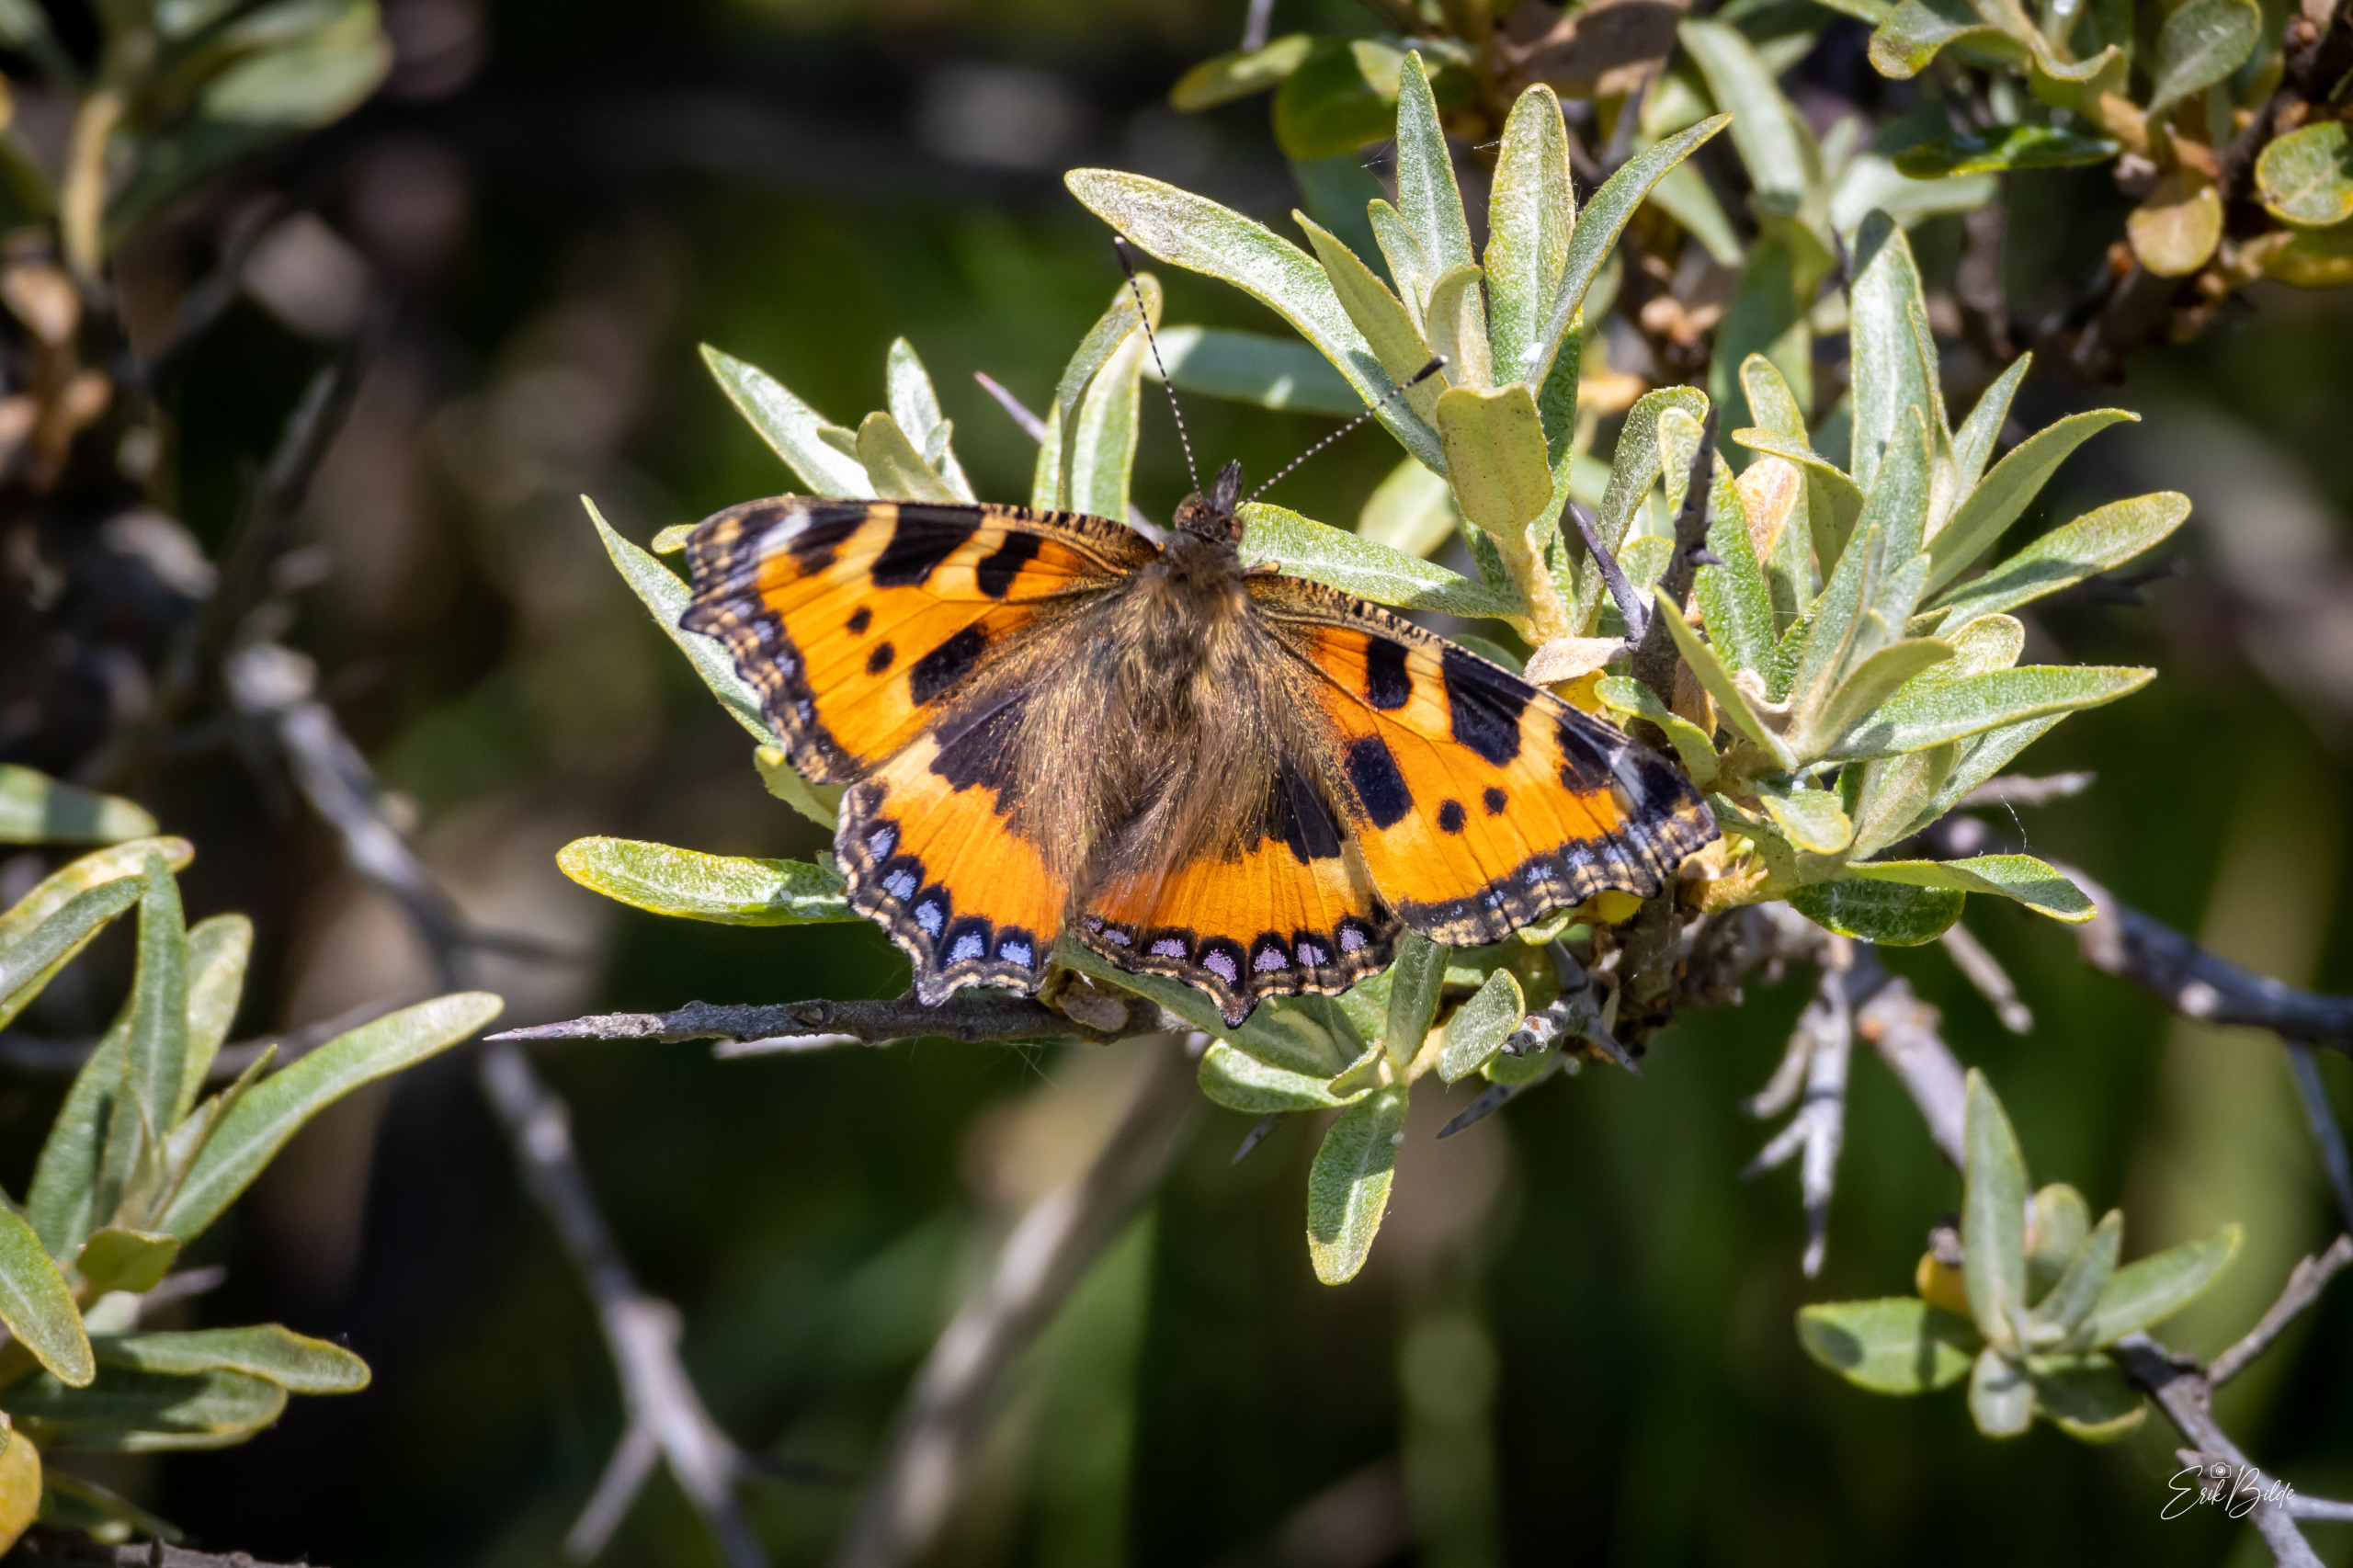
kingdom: Animalia
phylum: Arthropoda
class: Insecta
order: Lepidoptera
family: Nymphalidae
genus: Aglais
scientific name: Aglais urticae
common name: Nældens takvinge
